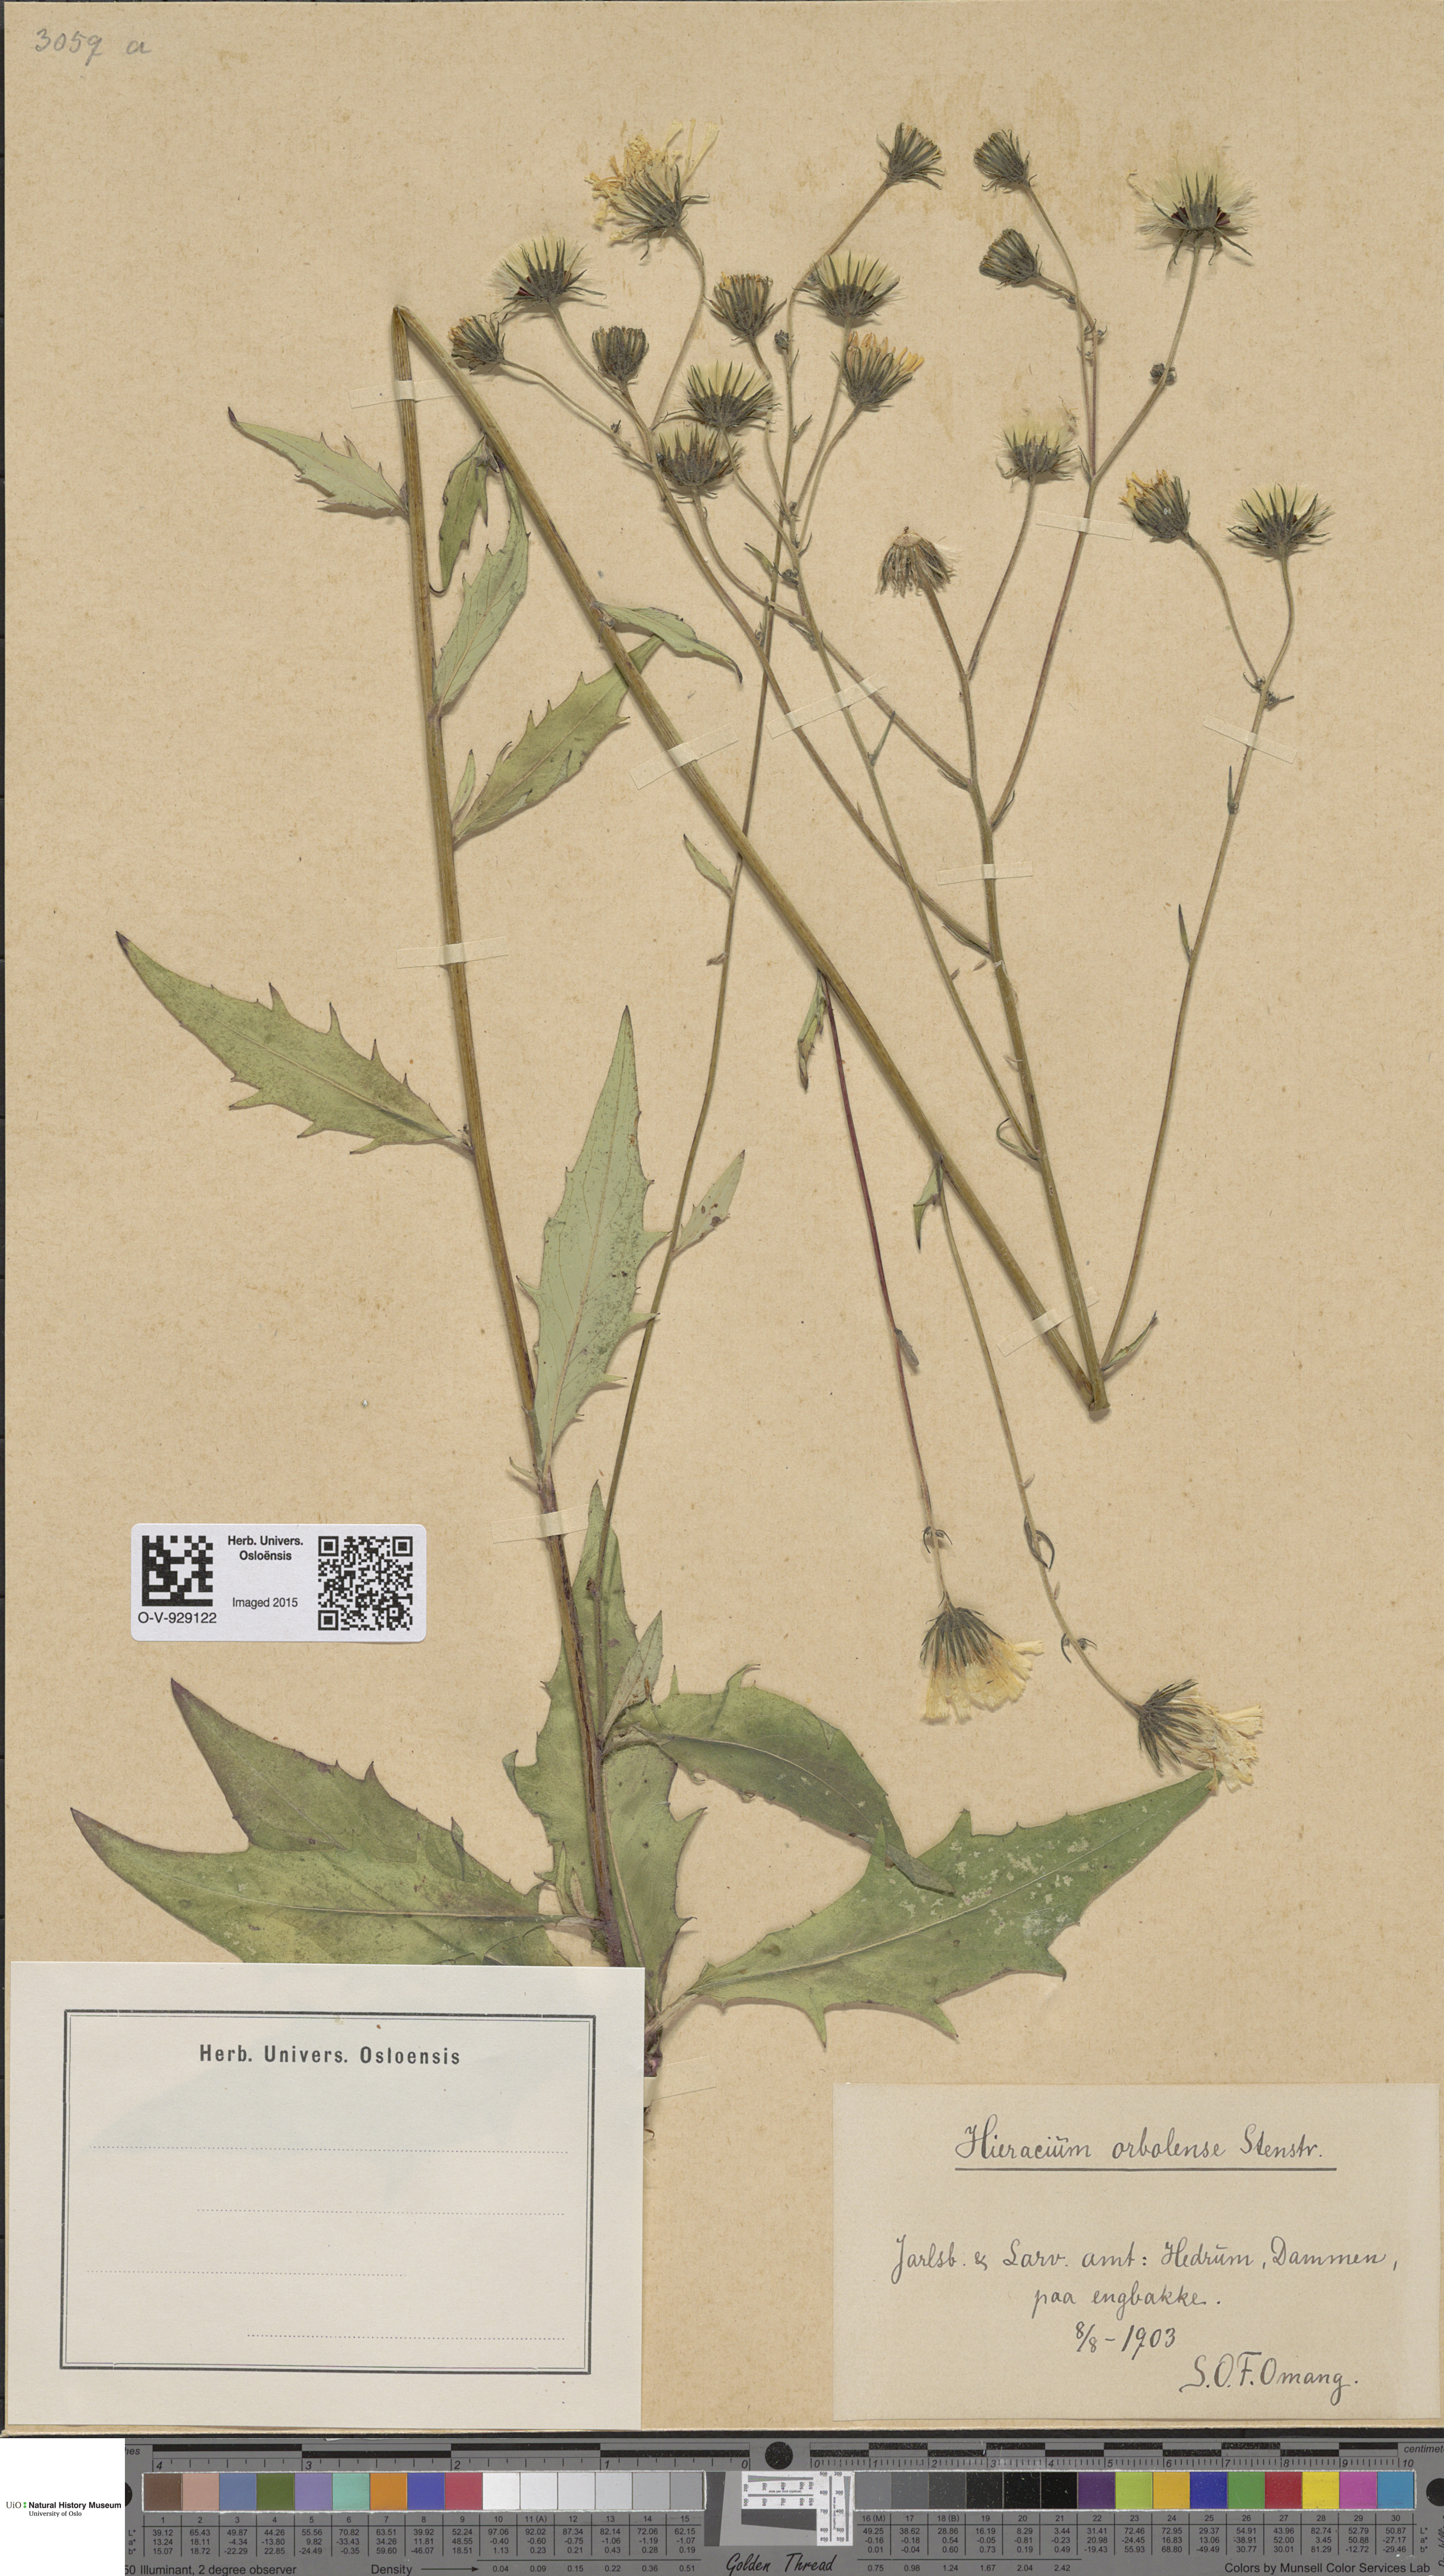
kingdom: Plantae
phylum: Tracheophyta
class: Magnoliopsida
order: Asterales
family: Asteraceae
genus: Hieracium
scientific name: Hieracium orbolense
